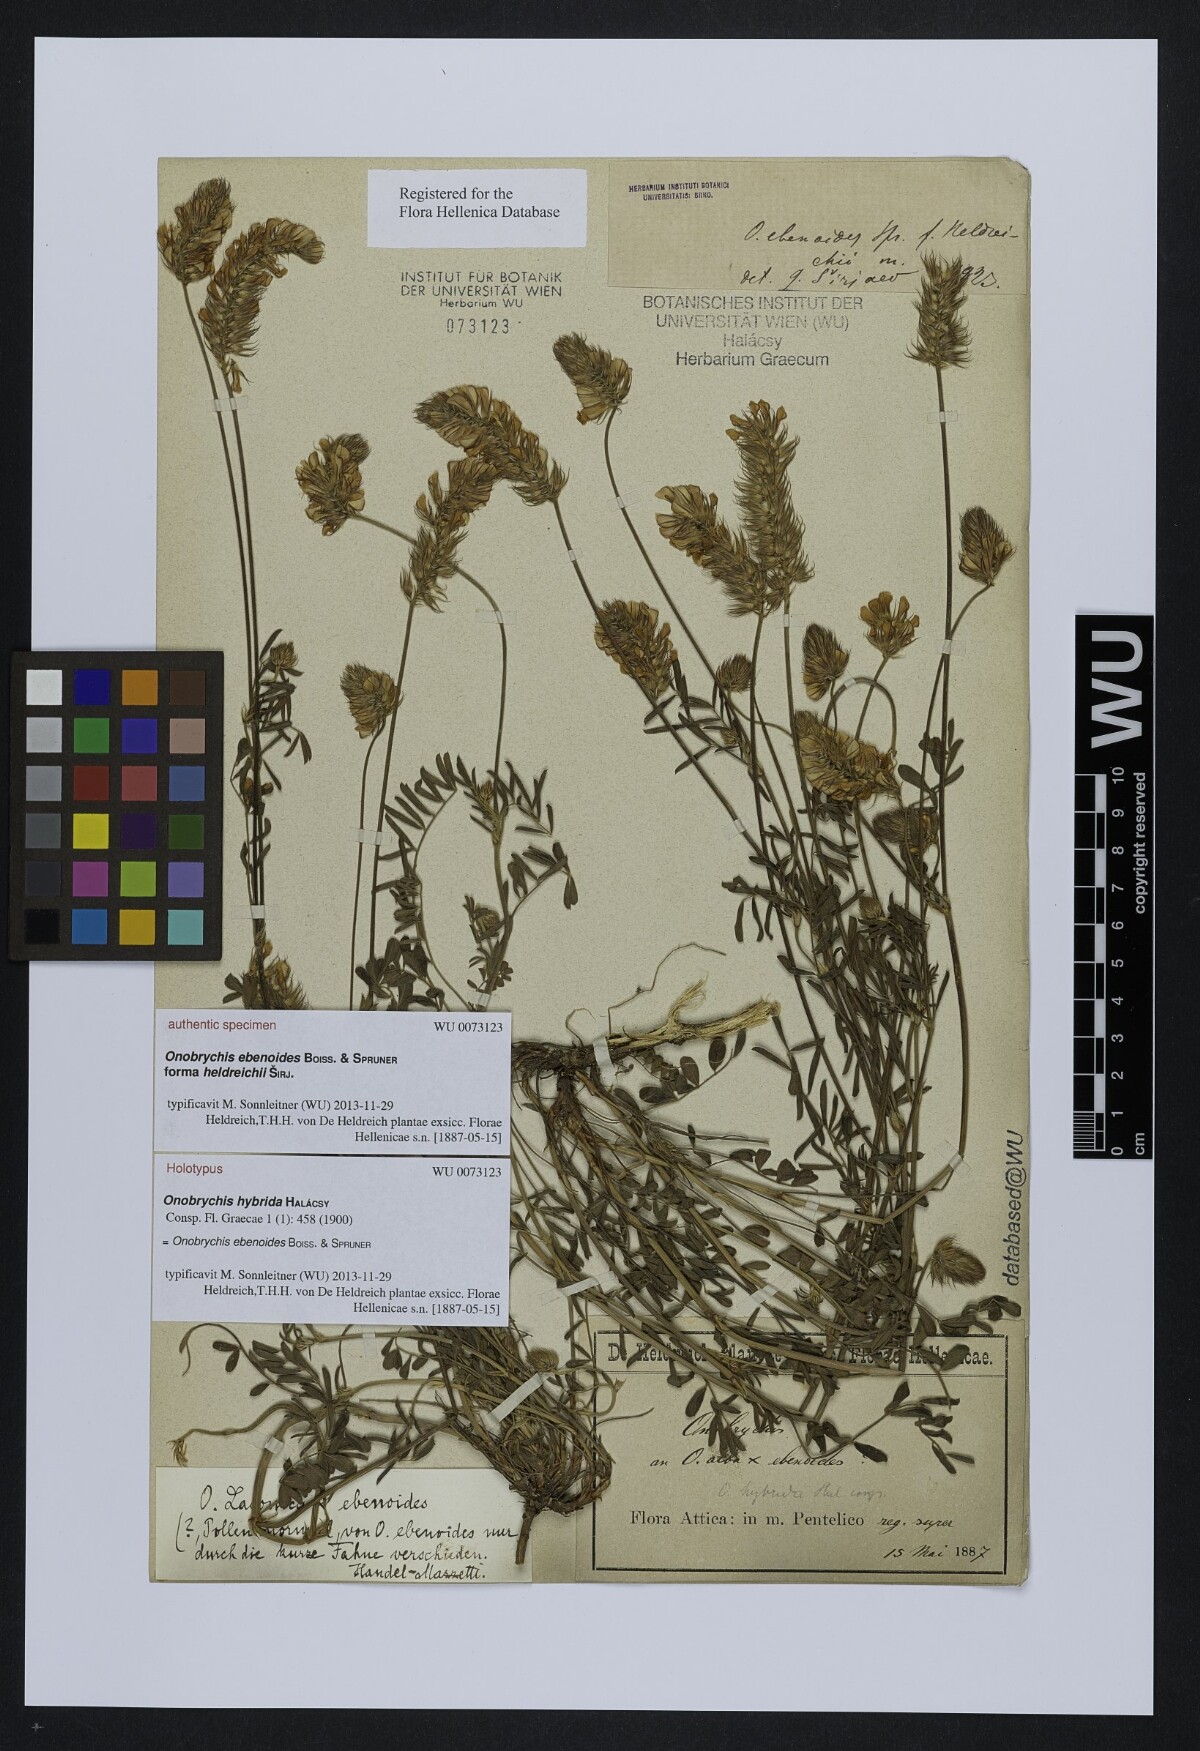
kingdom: Plantae
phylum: Tracheophyta
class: Magnoliopsida
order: Fabales
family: Fabaceae
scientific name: Fabaceae
